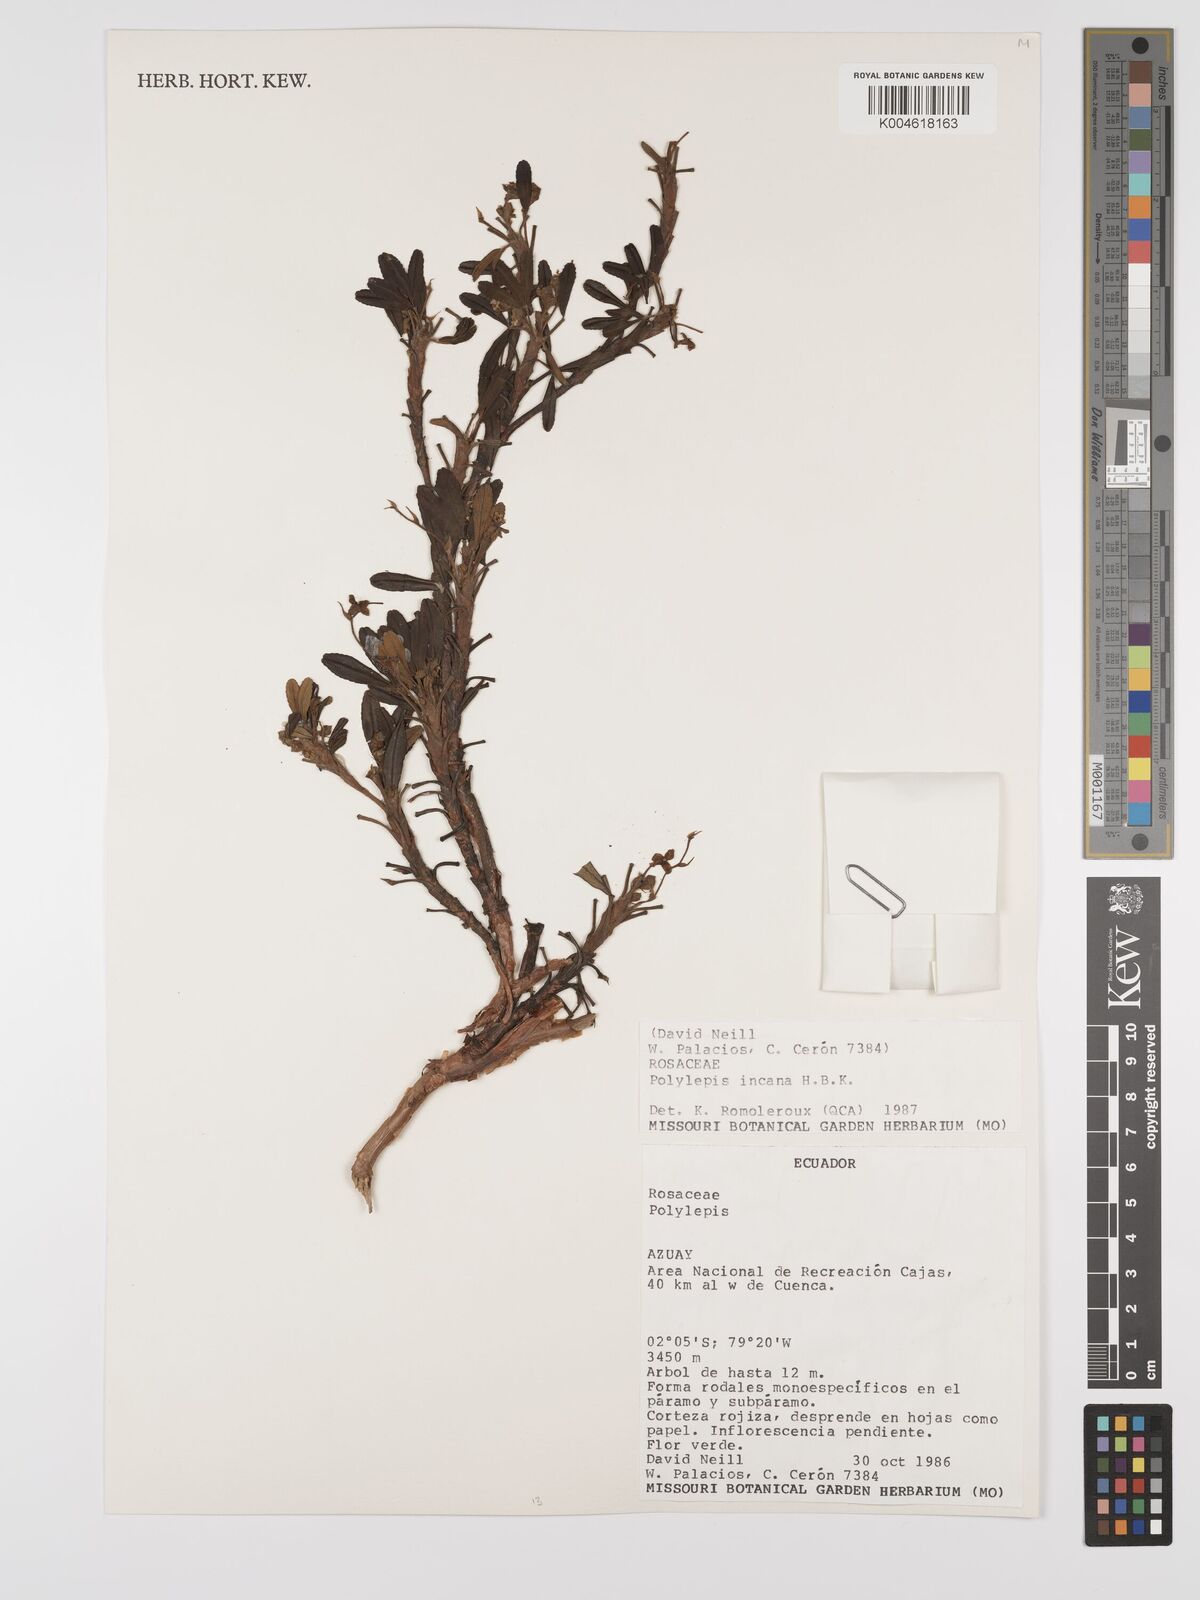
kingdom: Plantae
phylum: Tracheophyta
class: Magnoliopsida
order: Rosales
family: Rosaceae
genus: Polylepis
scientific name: Polylepis incana
